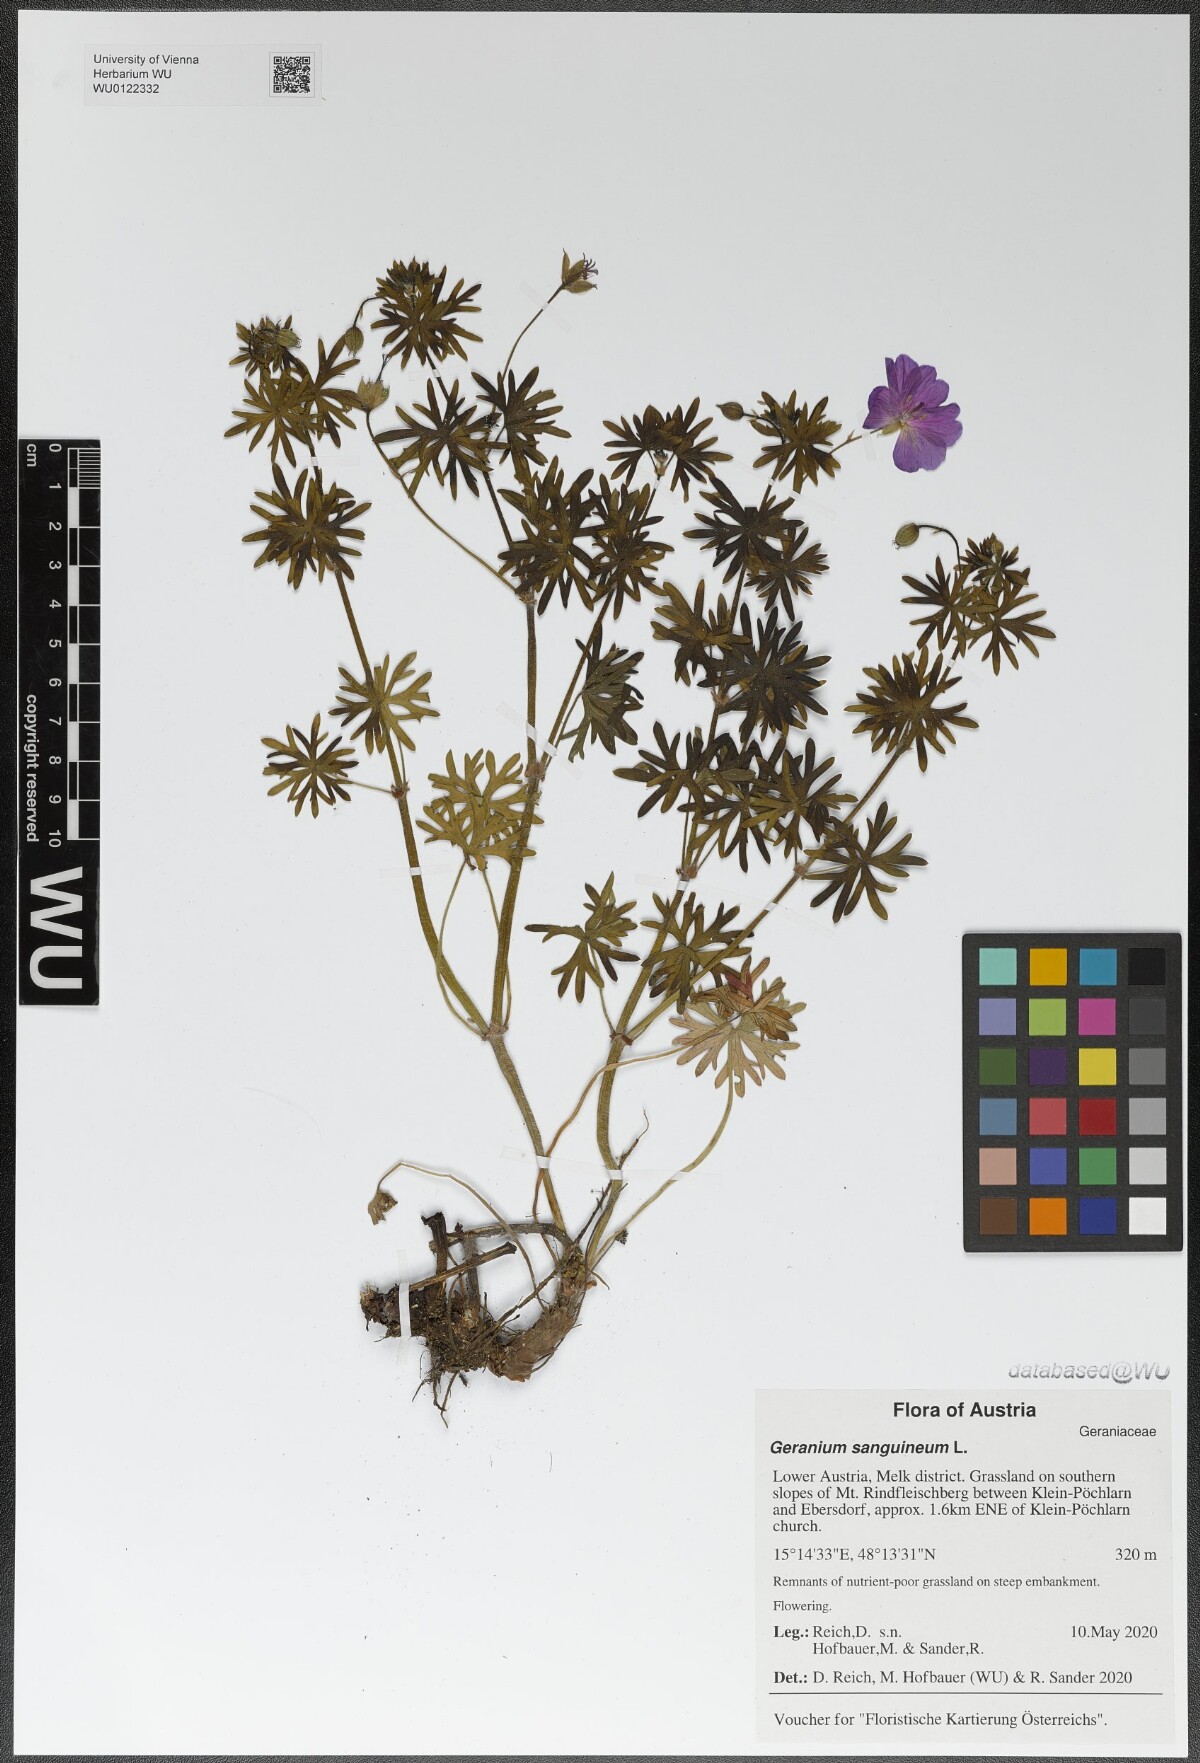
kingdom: Plantae
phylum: Tracheophyta
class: Magnoliopsida
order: Geraniales
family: Geraniaceae
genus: Geranium
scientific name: Geranium sanguineum
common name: Bloody crane's-bill
